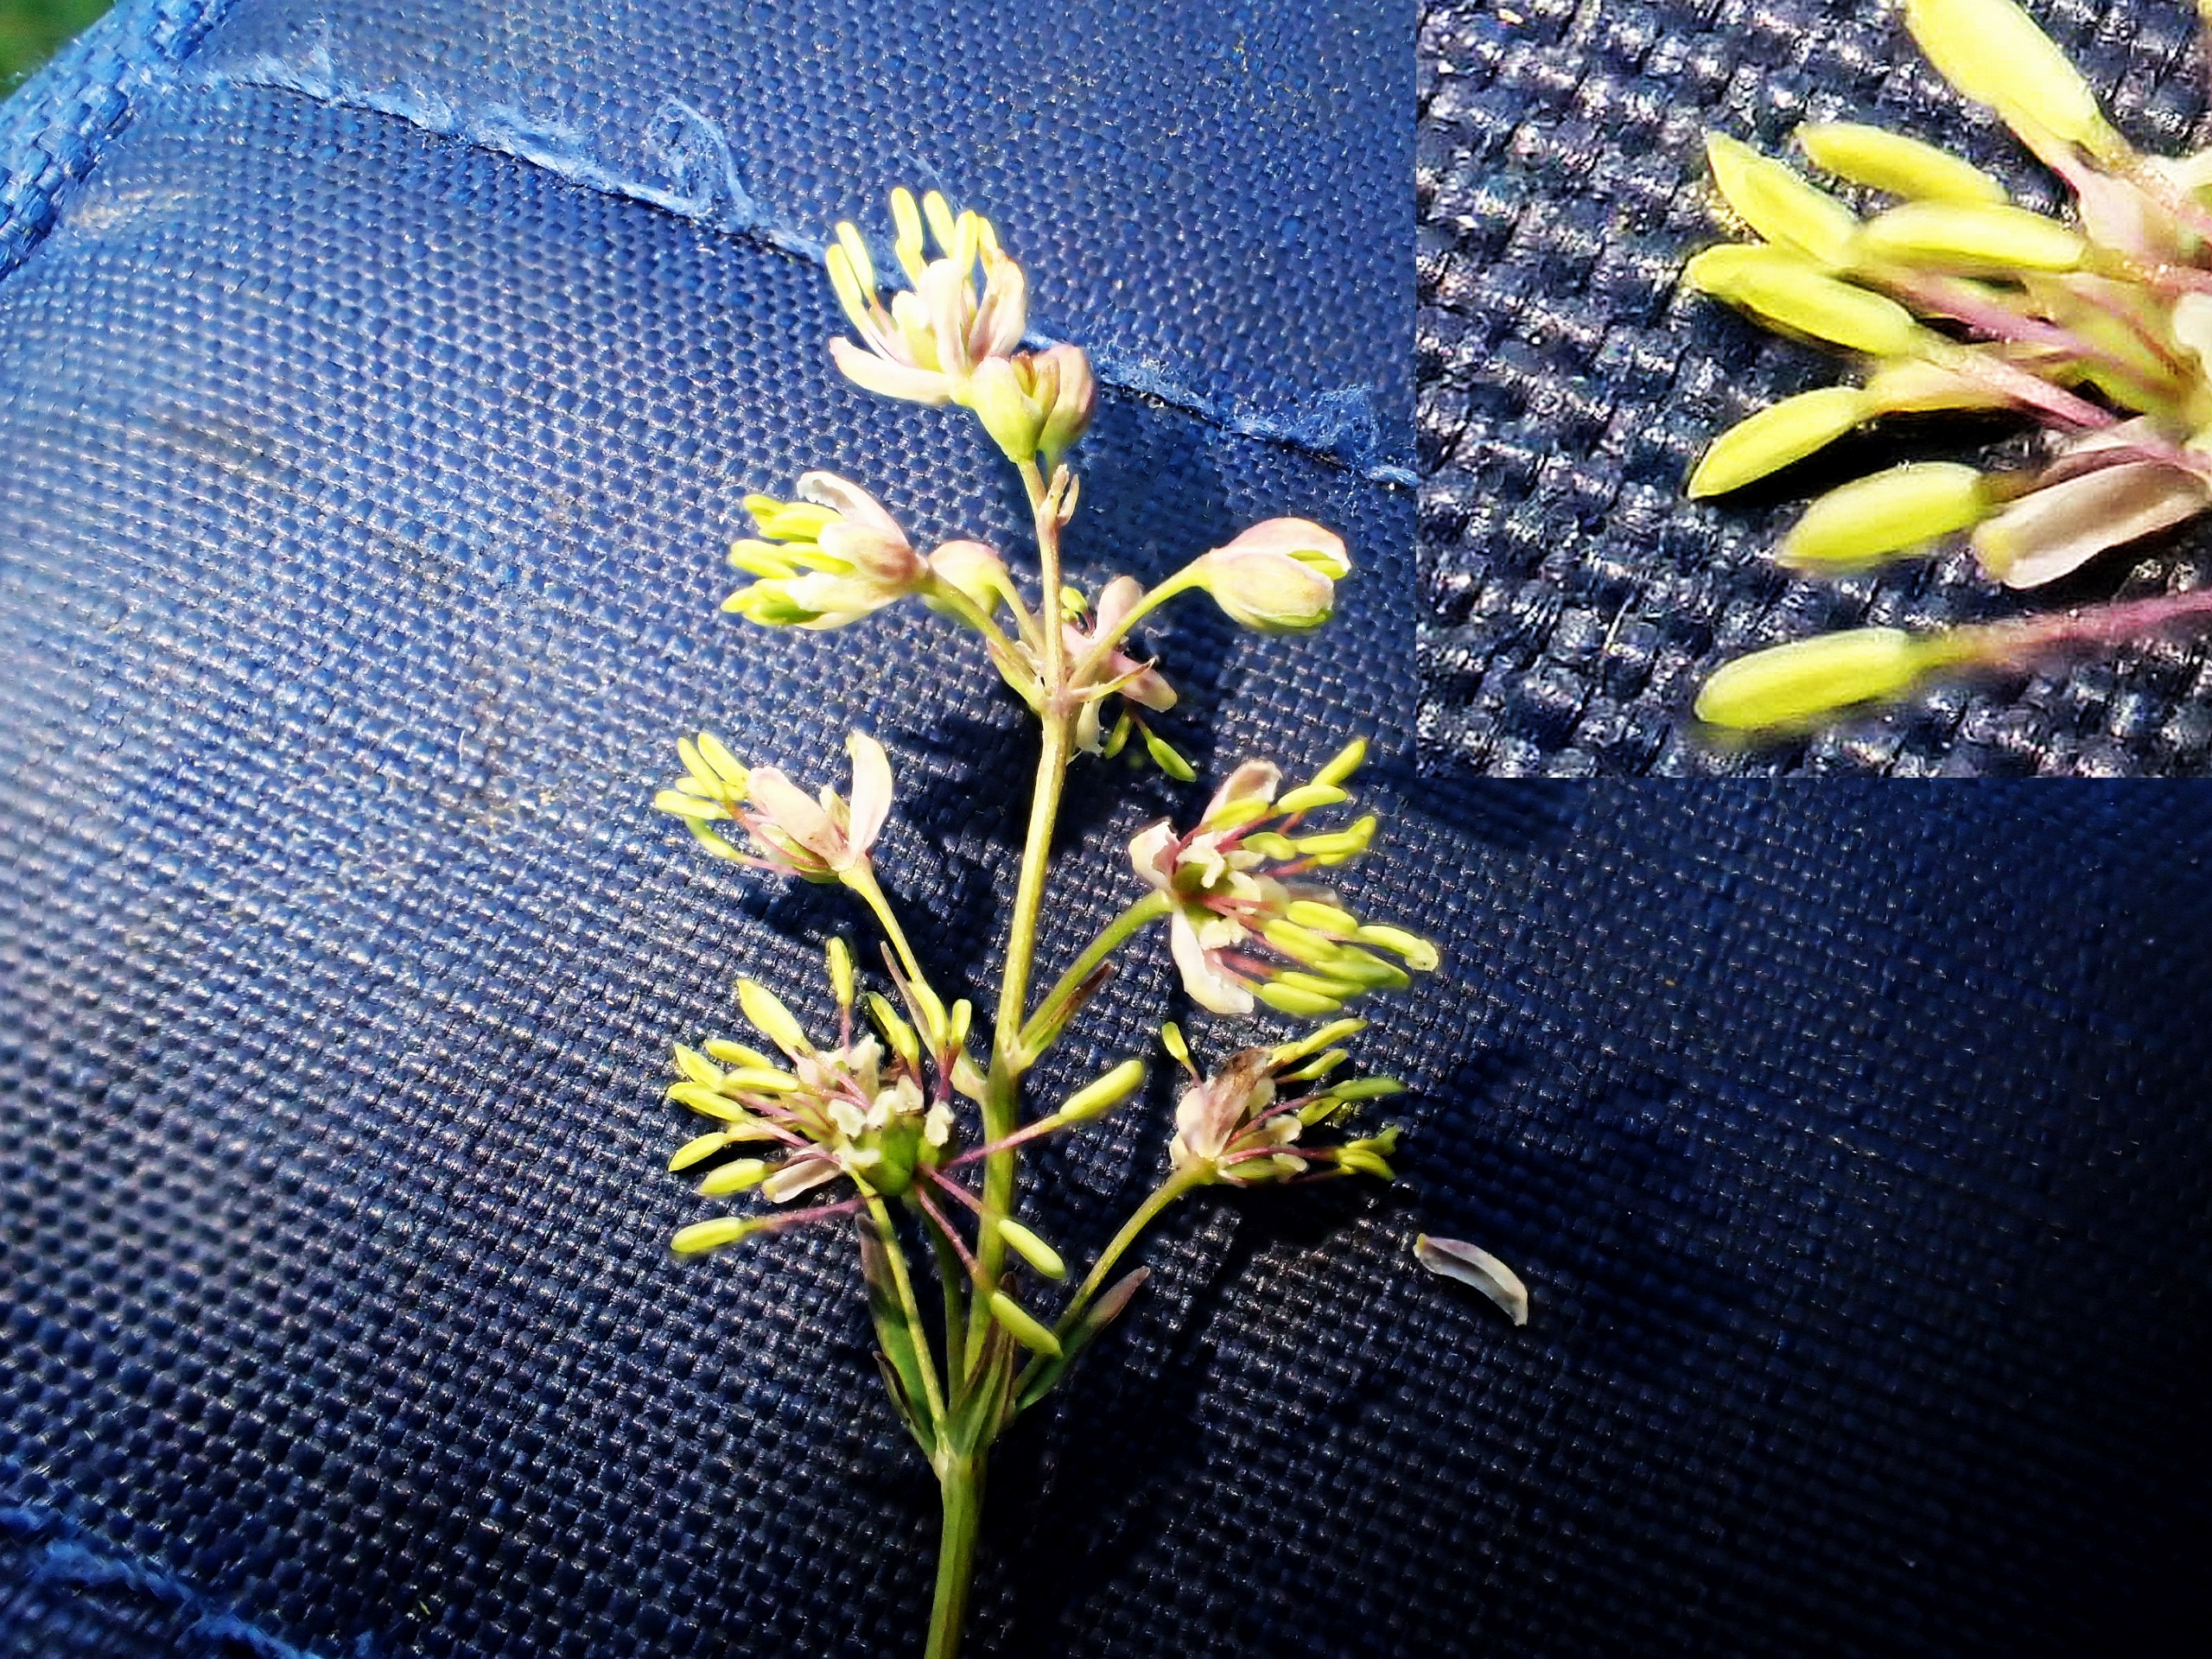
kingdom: Plantae
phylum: Tracheophyta
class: Magnoliopsida
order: Ranunculales
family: Ranunculaceae
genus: Thalictrum
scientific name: Thalictrum simplex
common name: Rank frøstjerne
